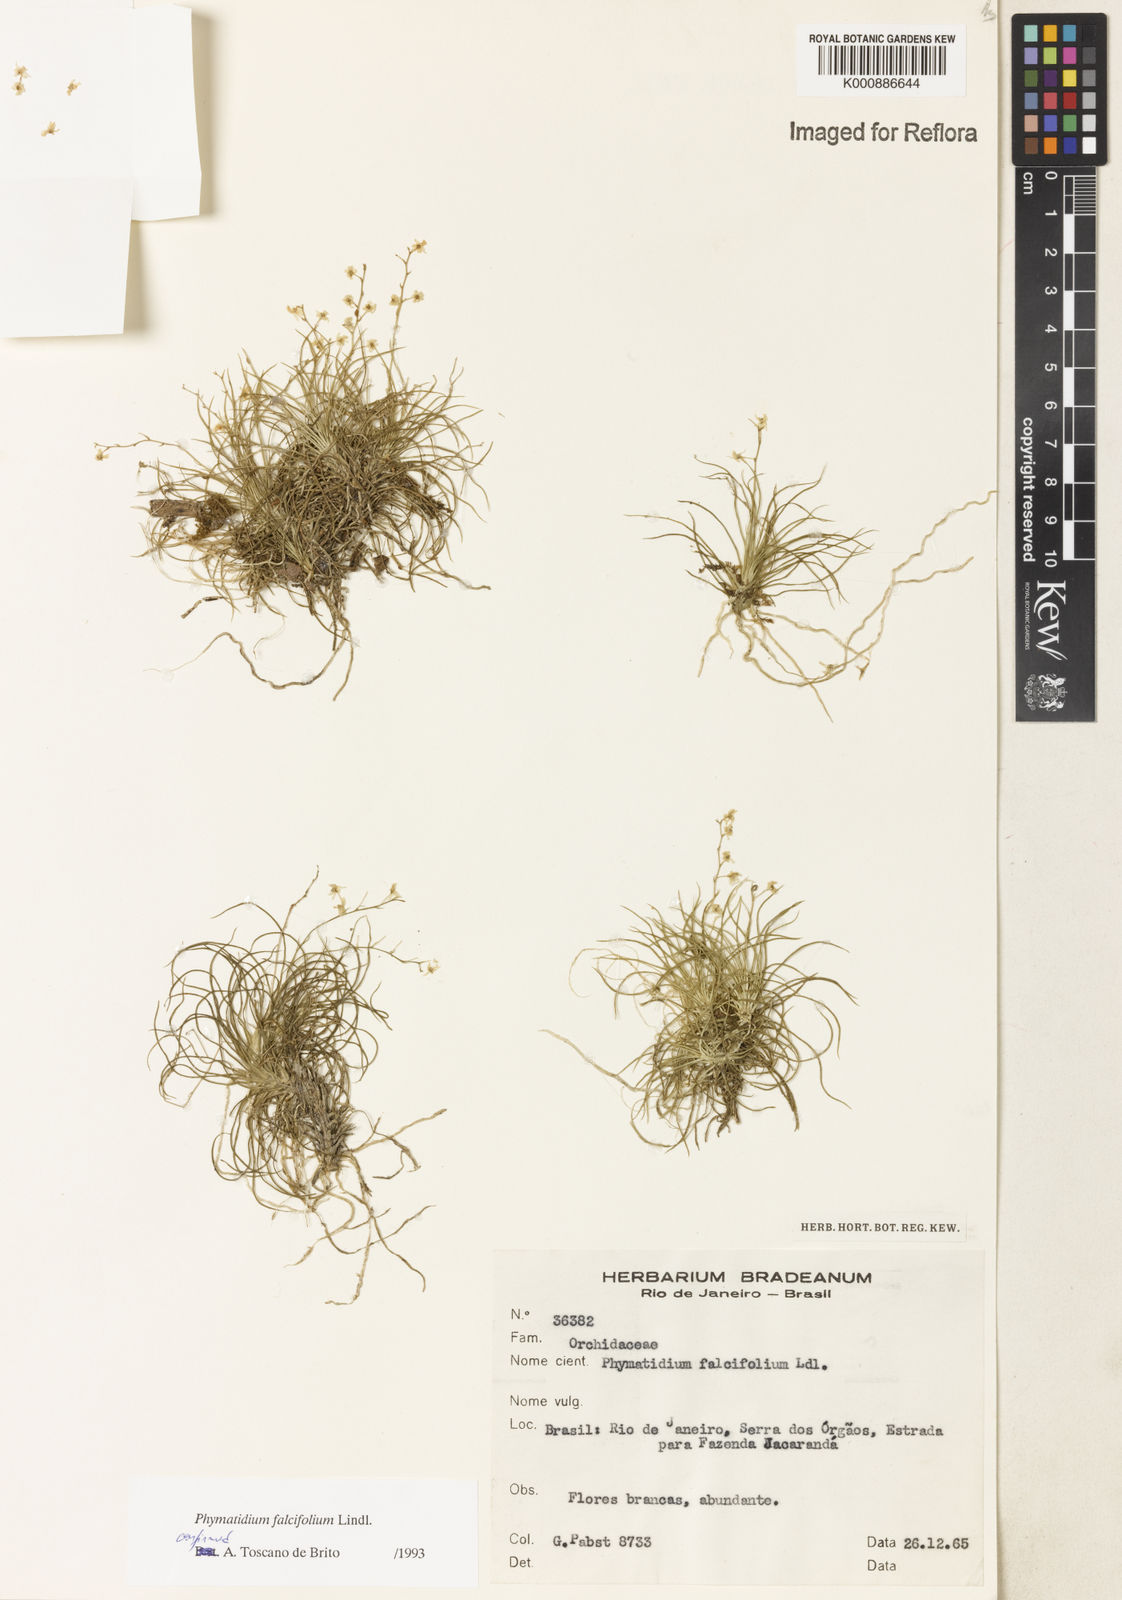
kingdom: Plantae
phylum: Tracheophyta
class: Liliopsida
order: Asparagales
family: Orchidaceae
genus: Phymatidium
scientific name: Phymatidium falcifolium
